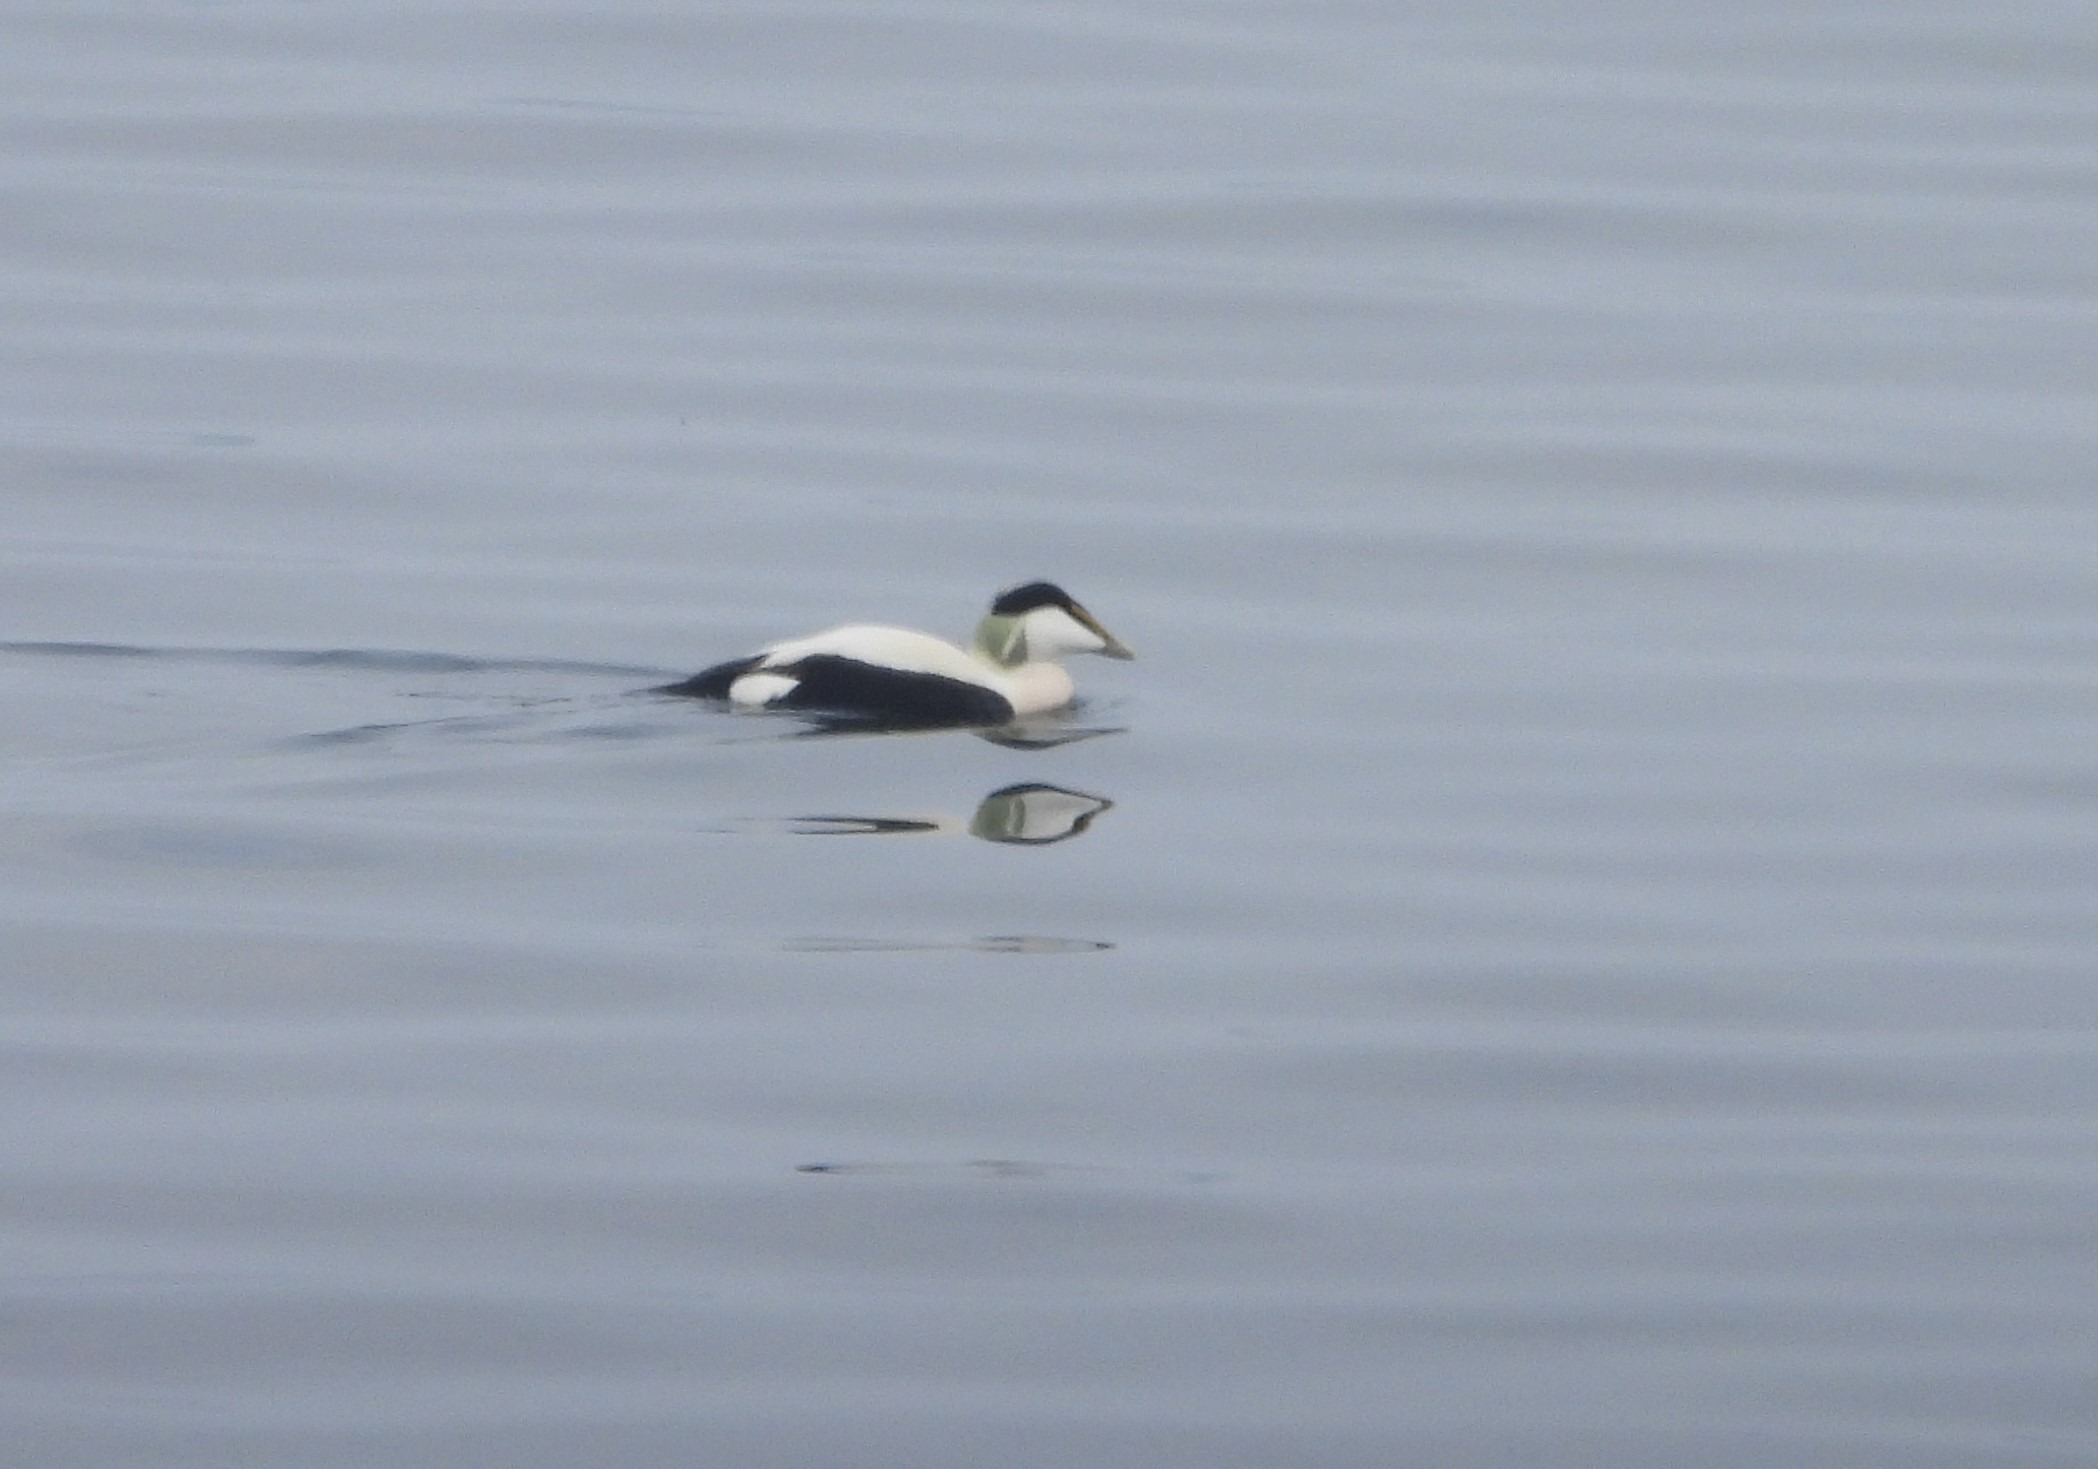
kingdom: Animalia
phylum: Chordata
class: Aves
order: Anseriformes
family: Anatidae
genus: Somateria
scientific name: Somateria mollissima
